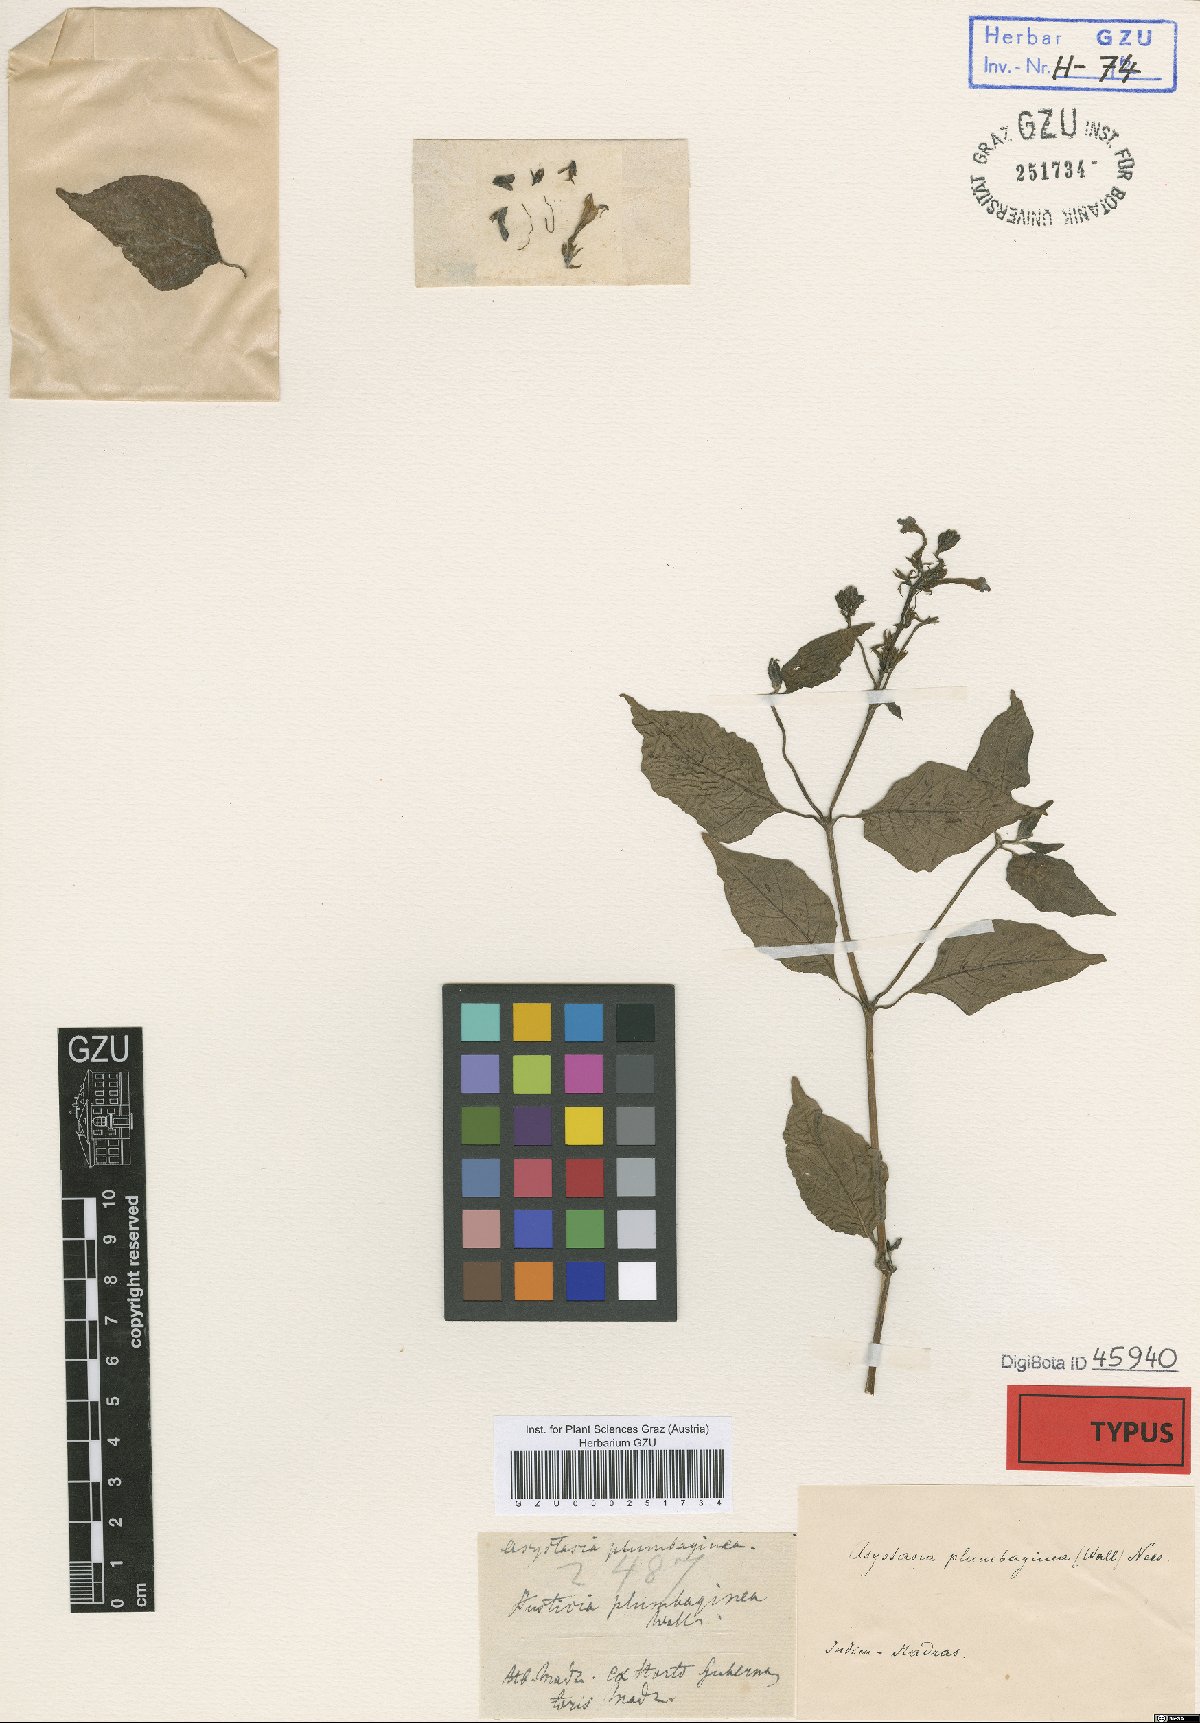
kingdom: Plantae
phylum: Tracheophyta
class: Magnoliopsida
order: Lamiales
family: Acanthaceae
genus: Asystasia
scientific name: Asystasia gangetica
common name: Chinese violet
